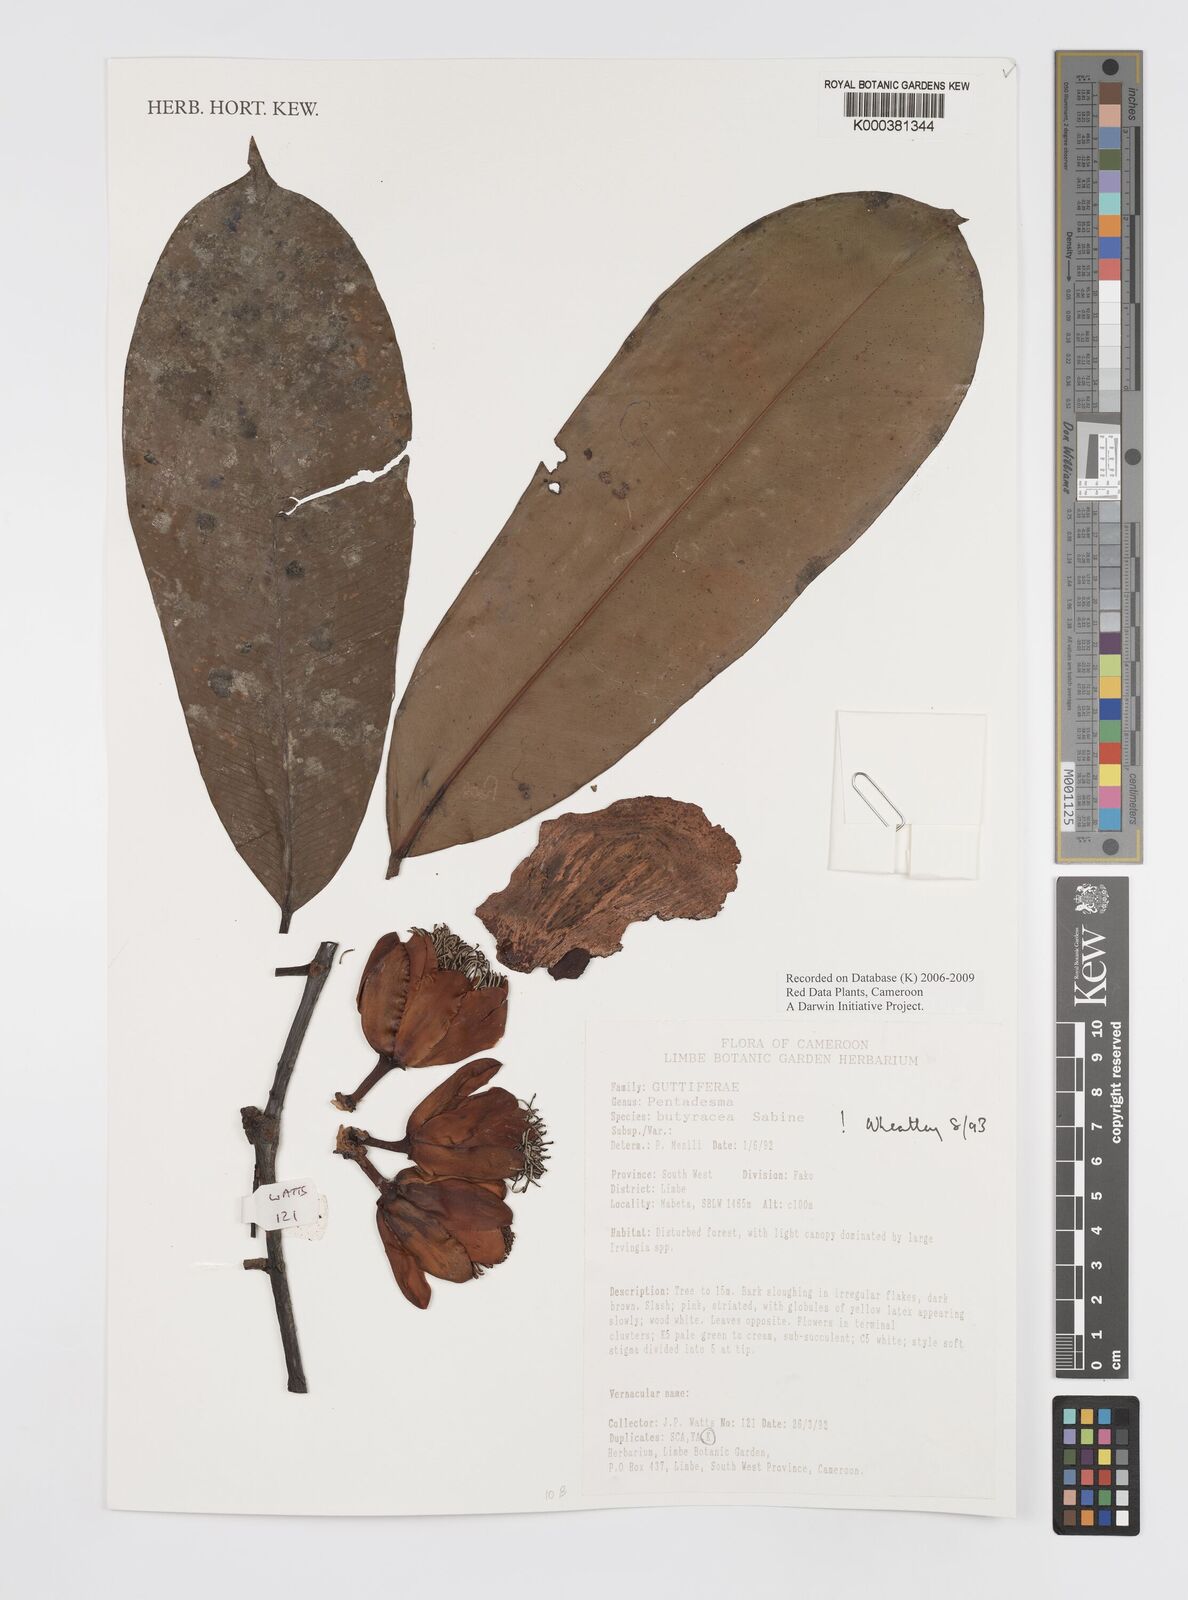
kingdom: Plantae
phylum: Tracheophyta
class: Magnoliopsida
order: Malpighiales
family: Clusiaceae
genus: Pentadesma
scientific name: Pentadesma butyracea
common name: Buttertree
